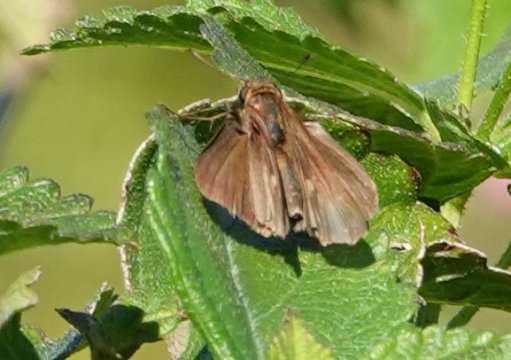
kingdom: Animalia
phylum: Arthropoda
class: Insecta
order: Lepidoptera
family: Hesperiidae
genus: Panoquina
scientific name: Panoquina ocola
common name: Ocola Skipper
